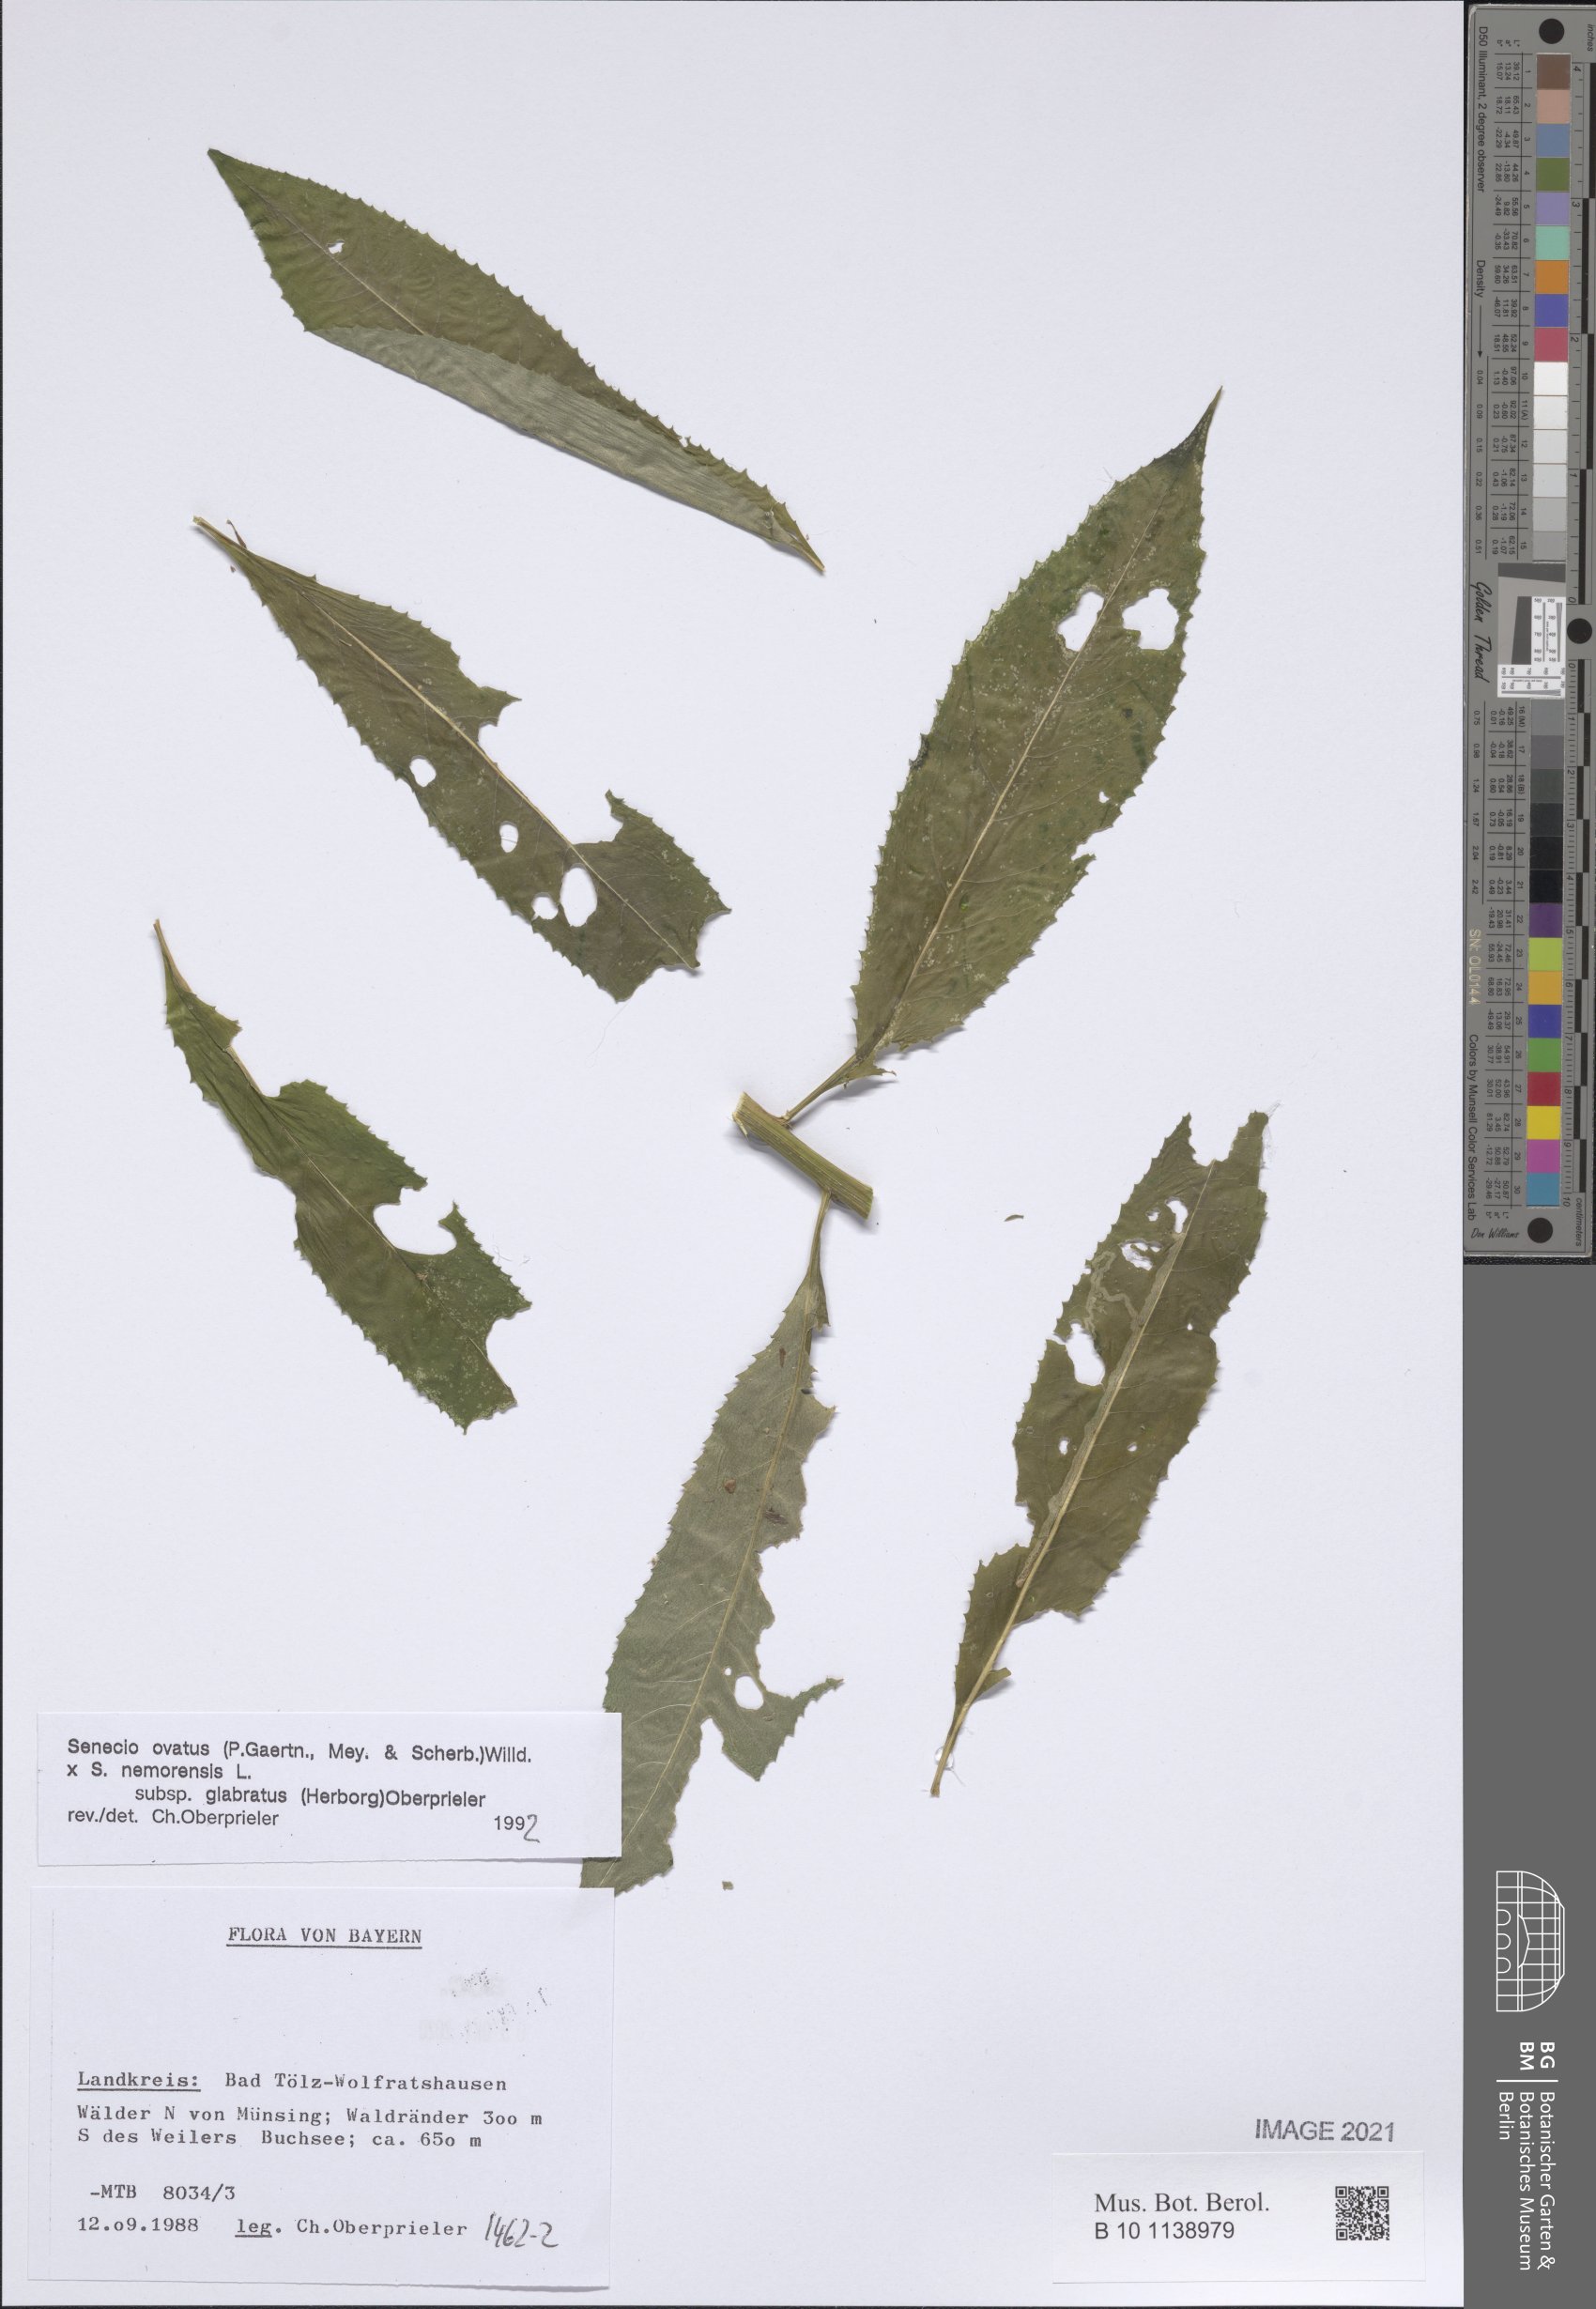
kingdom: Plantae
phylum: Tracheophyta
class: Magnoliopsida
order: Asterales
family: Asteraceae
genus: Senecio
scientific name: Senecio ovatus
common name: Wood ragwort
